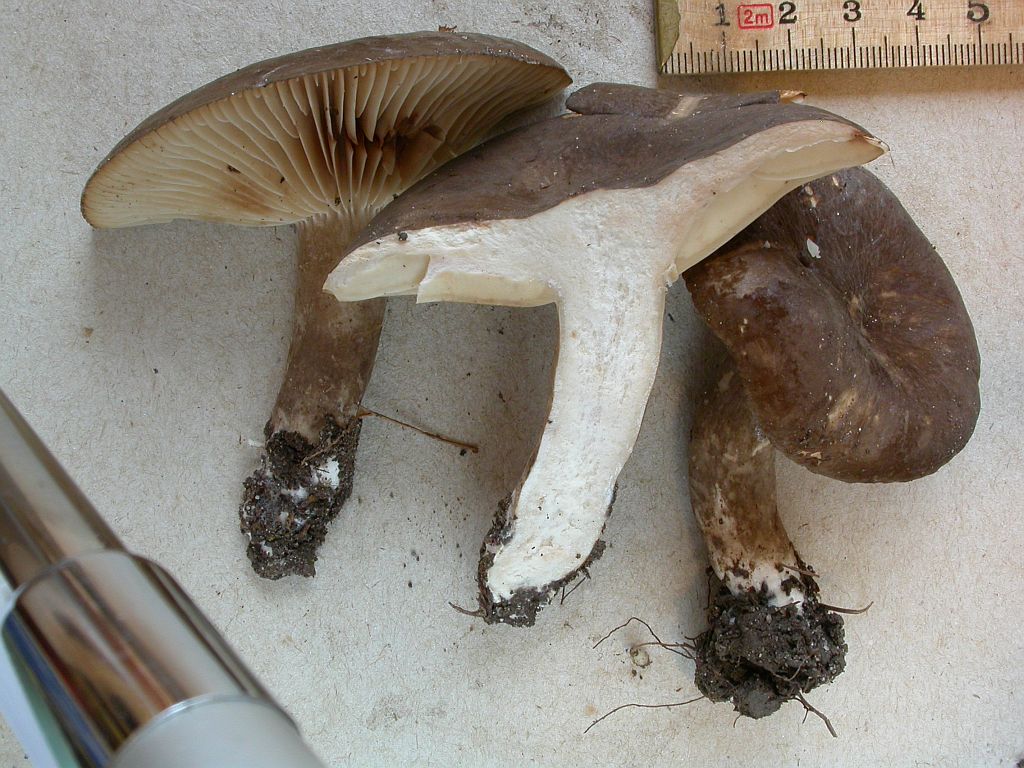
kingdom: Fungi
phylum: Basidiomycota
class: Agaricomycetes
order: Russulales
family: Russulaceae
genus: Lactarius
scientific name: Lactarius romagnesii
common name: fjernbladet mælkehat
